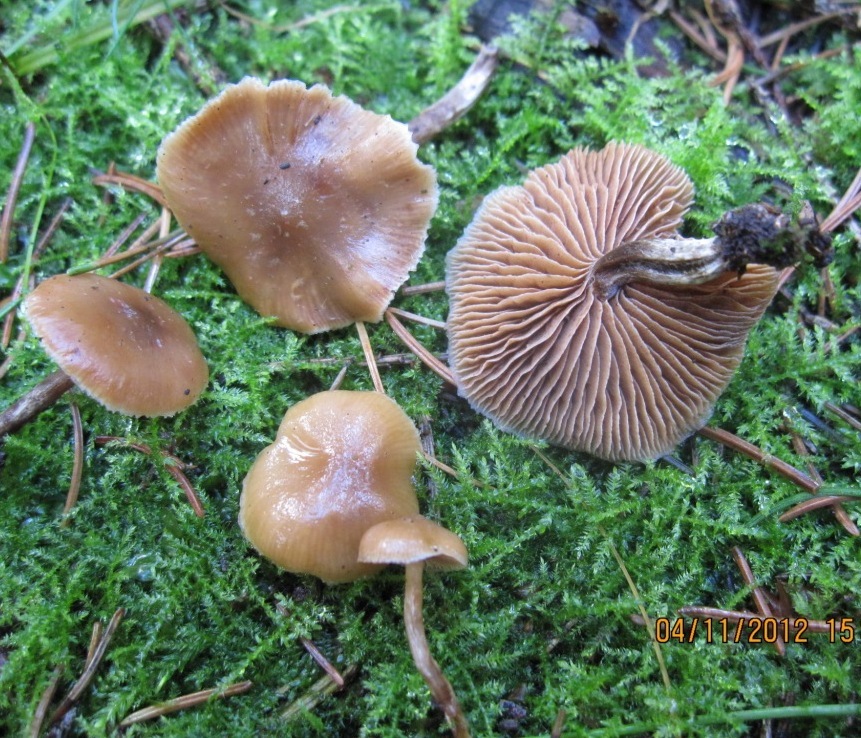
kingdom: Fungi
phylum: Basidiomycota
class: Agaricomycetes
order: Agaricales
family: Hymenogastraceae
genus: Galerina
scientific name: Galerina sideroides
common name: træflis-hjelmhat
